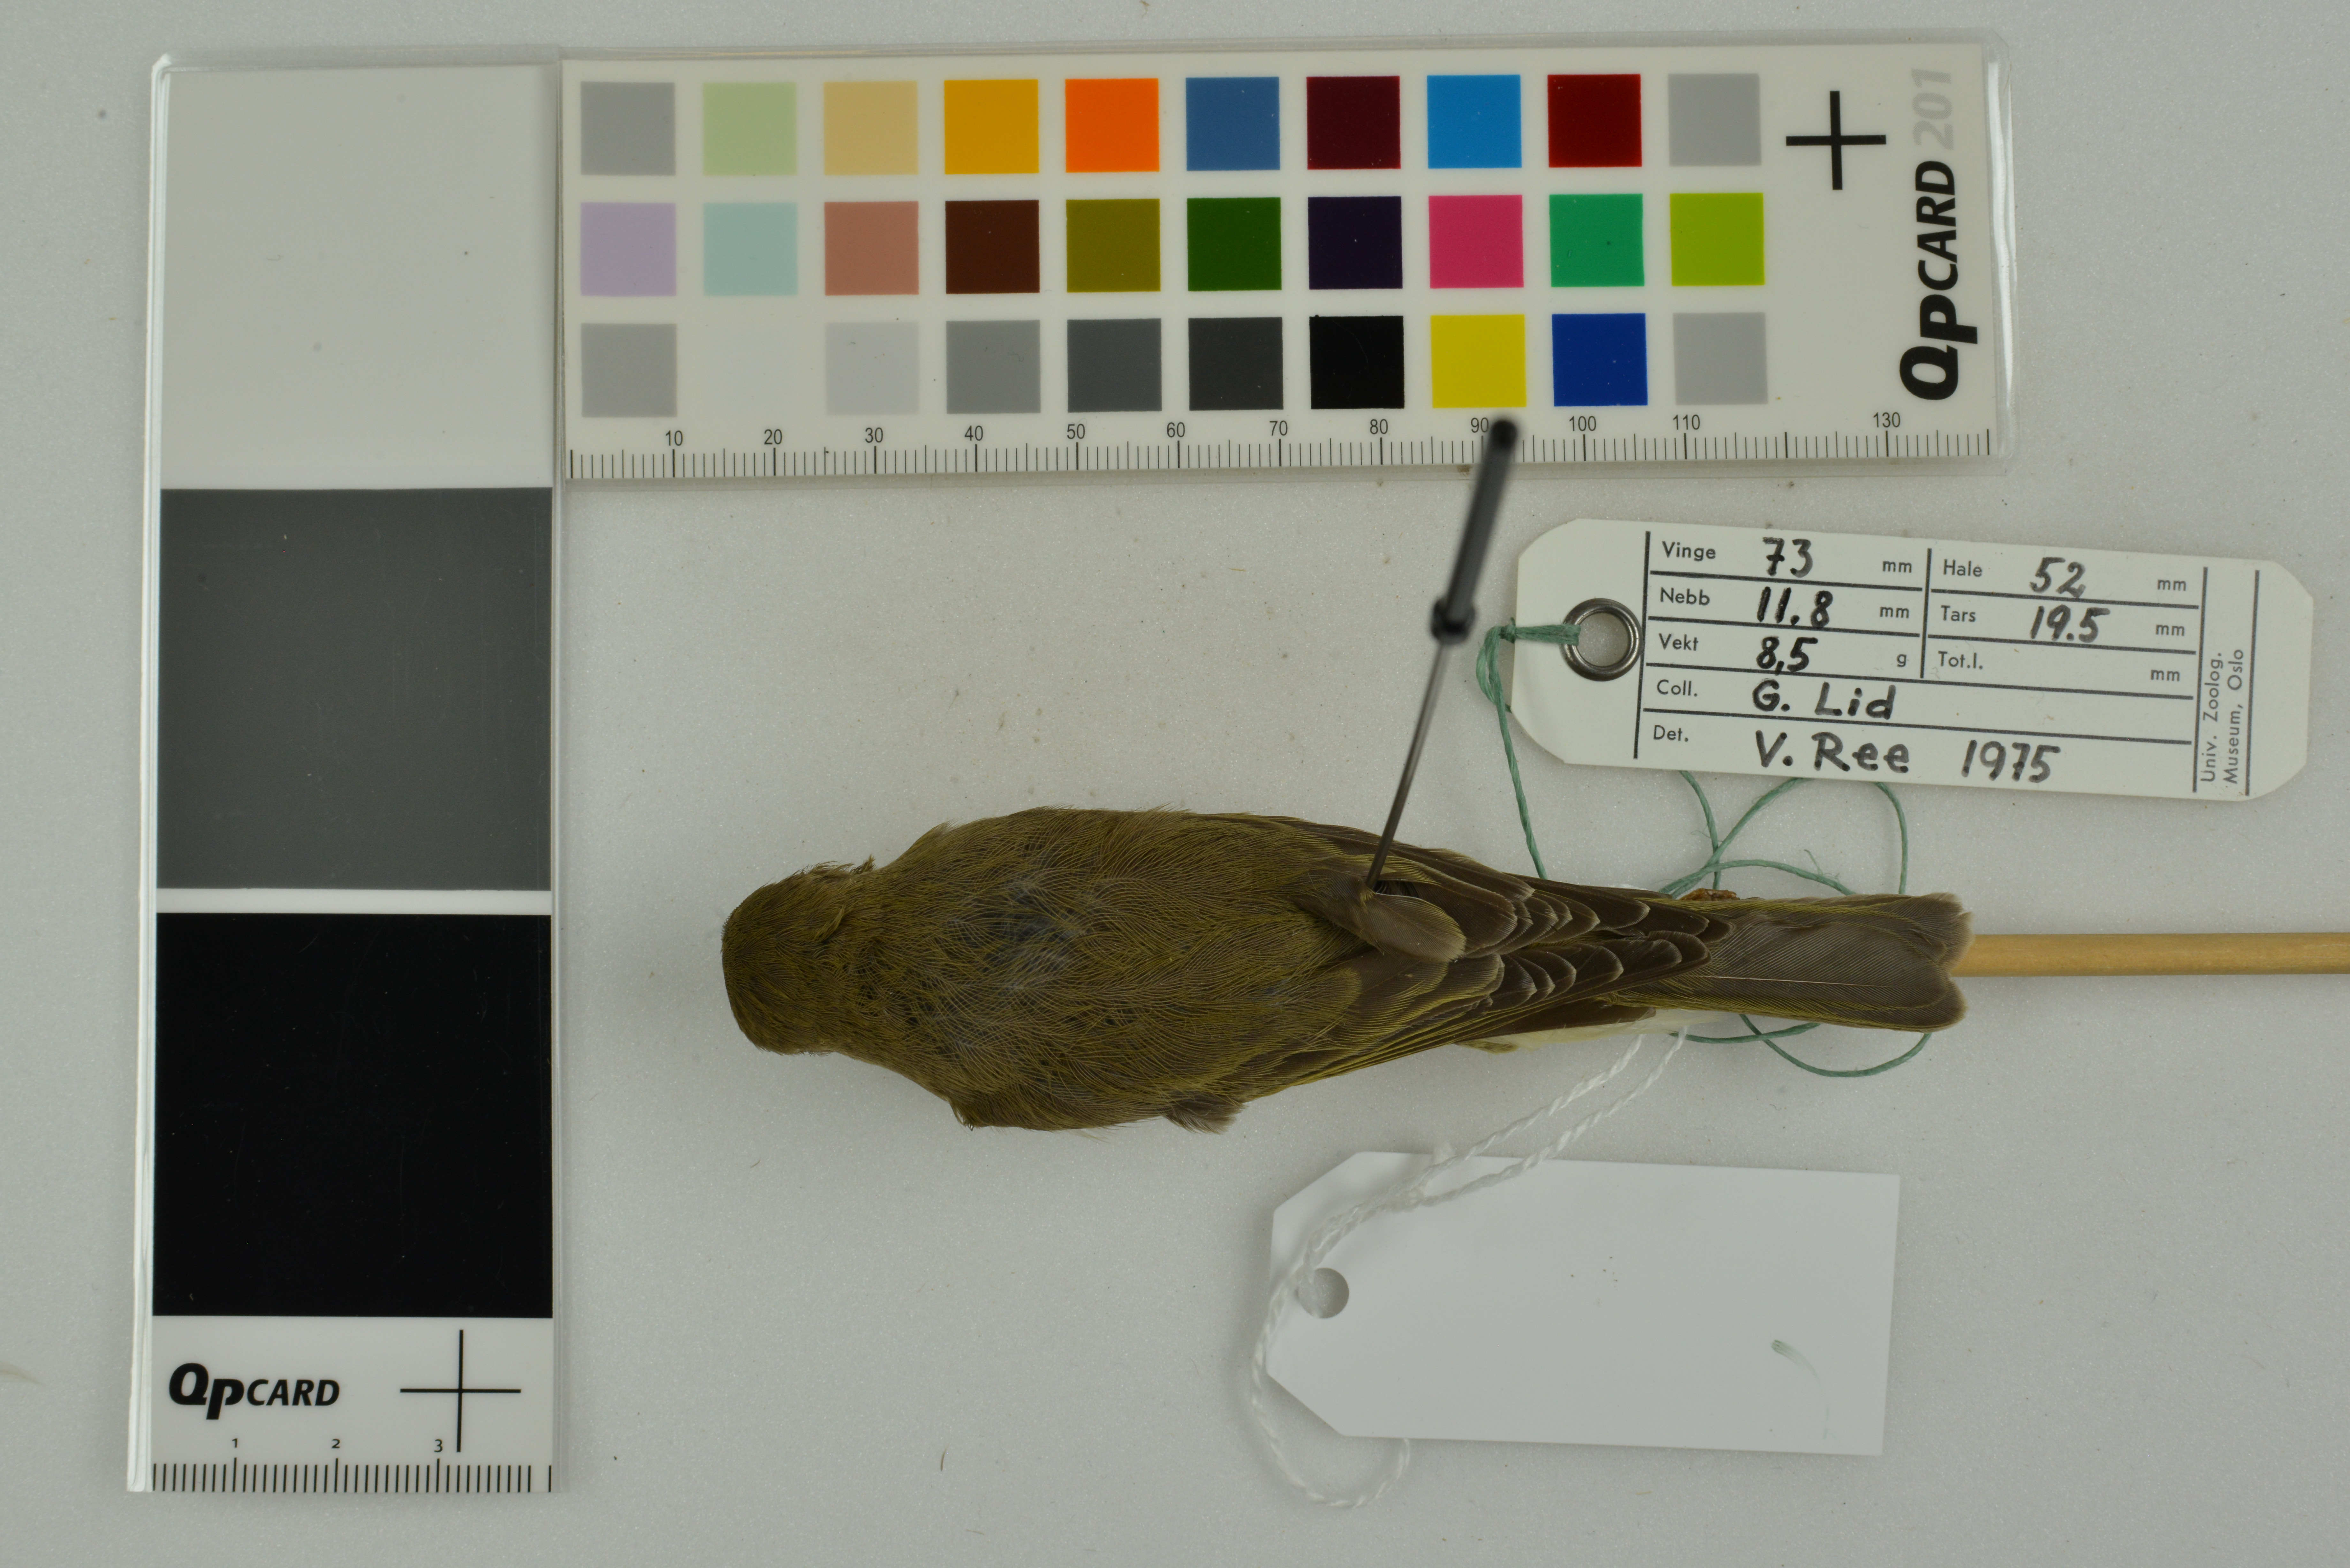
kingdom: Animalia
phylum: Chordata
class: Aves
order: Passeriformes
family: Phylloscopidae
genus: Phylloscopus
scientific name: Phylloscopus trochilus
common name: Willow warbler
